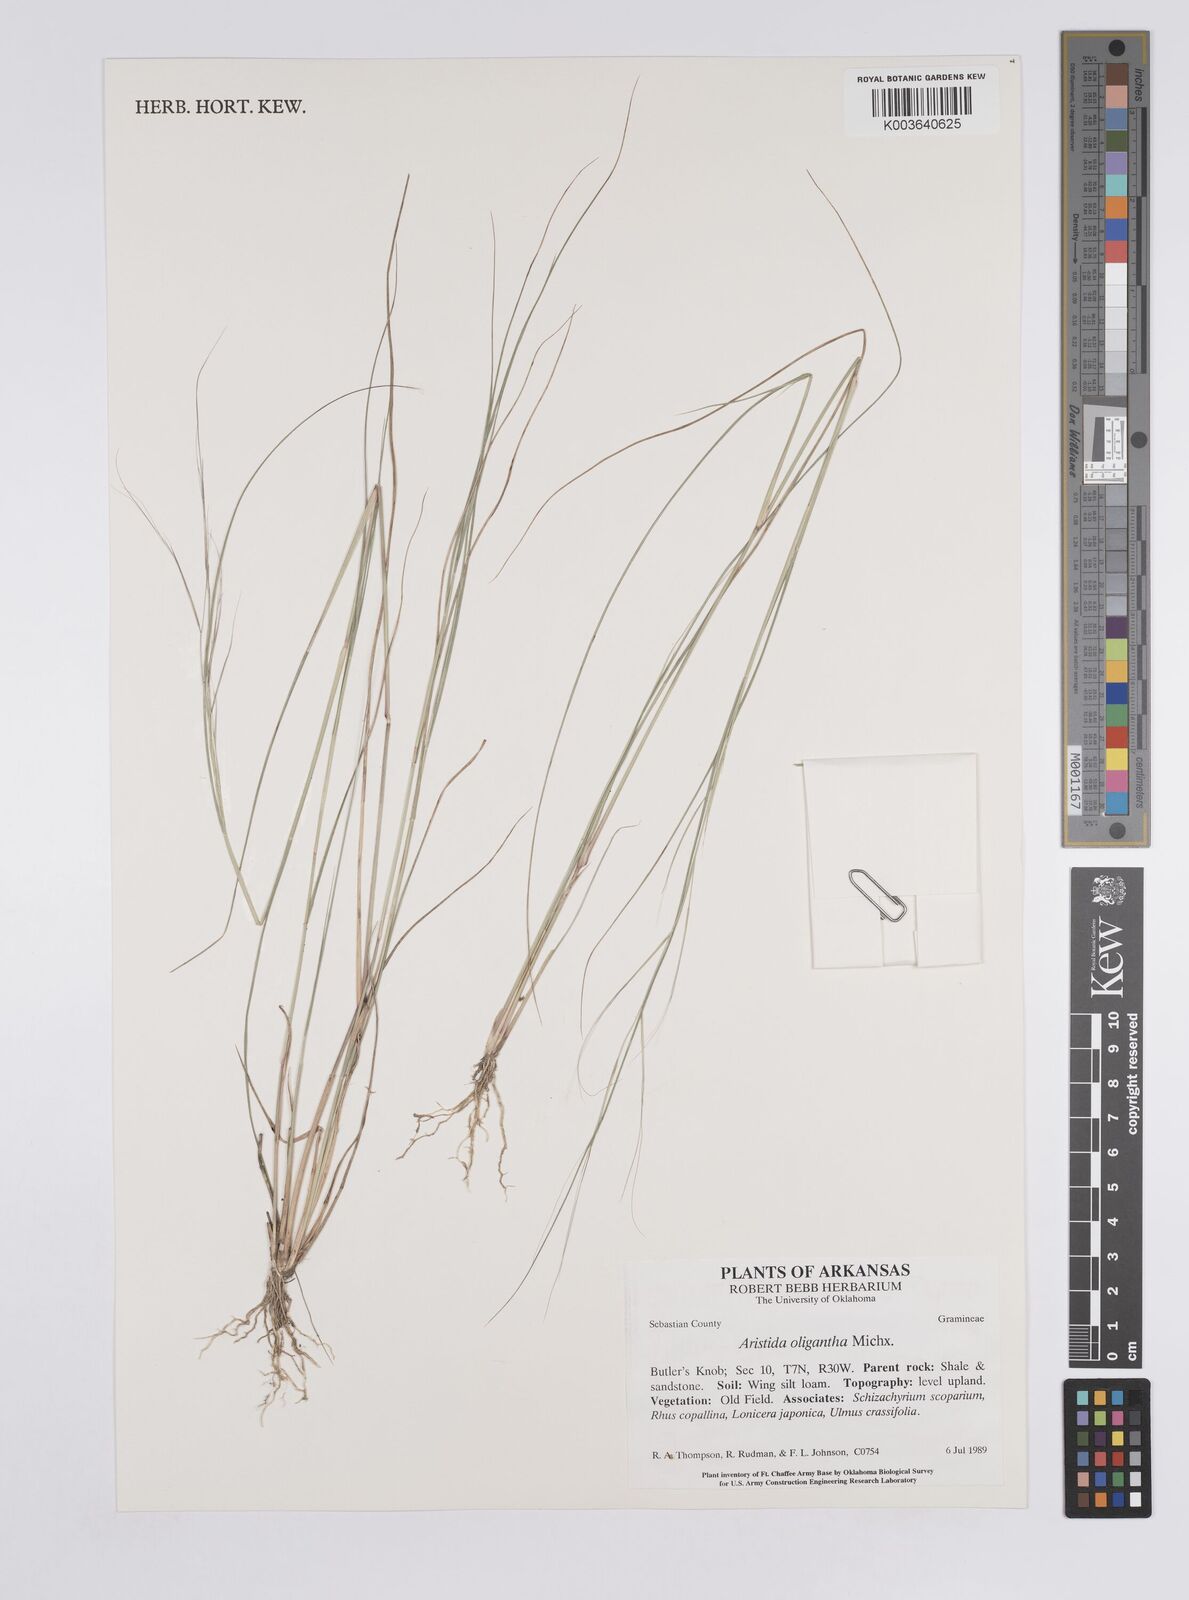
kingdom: Plantae
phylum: Tracheophyta
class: Liliopsida
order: Poales
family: Poaceae
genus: Aristida
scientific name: Aristida oligantha
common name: Few-flowered aristida
